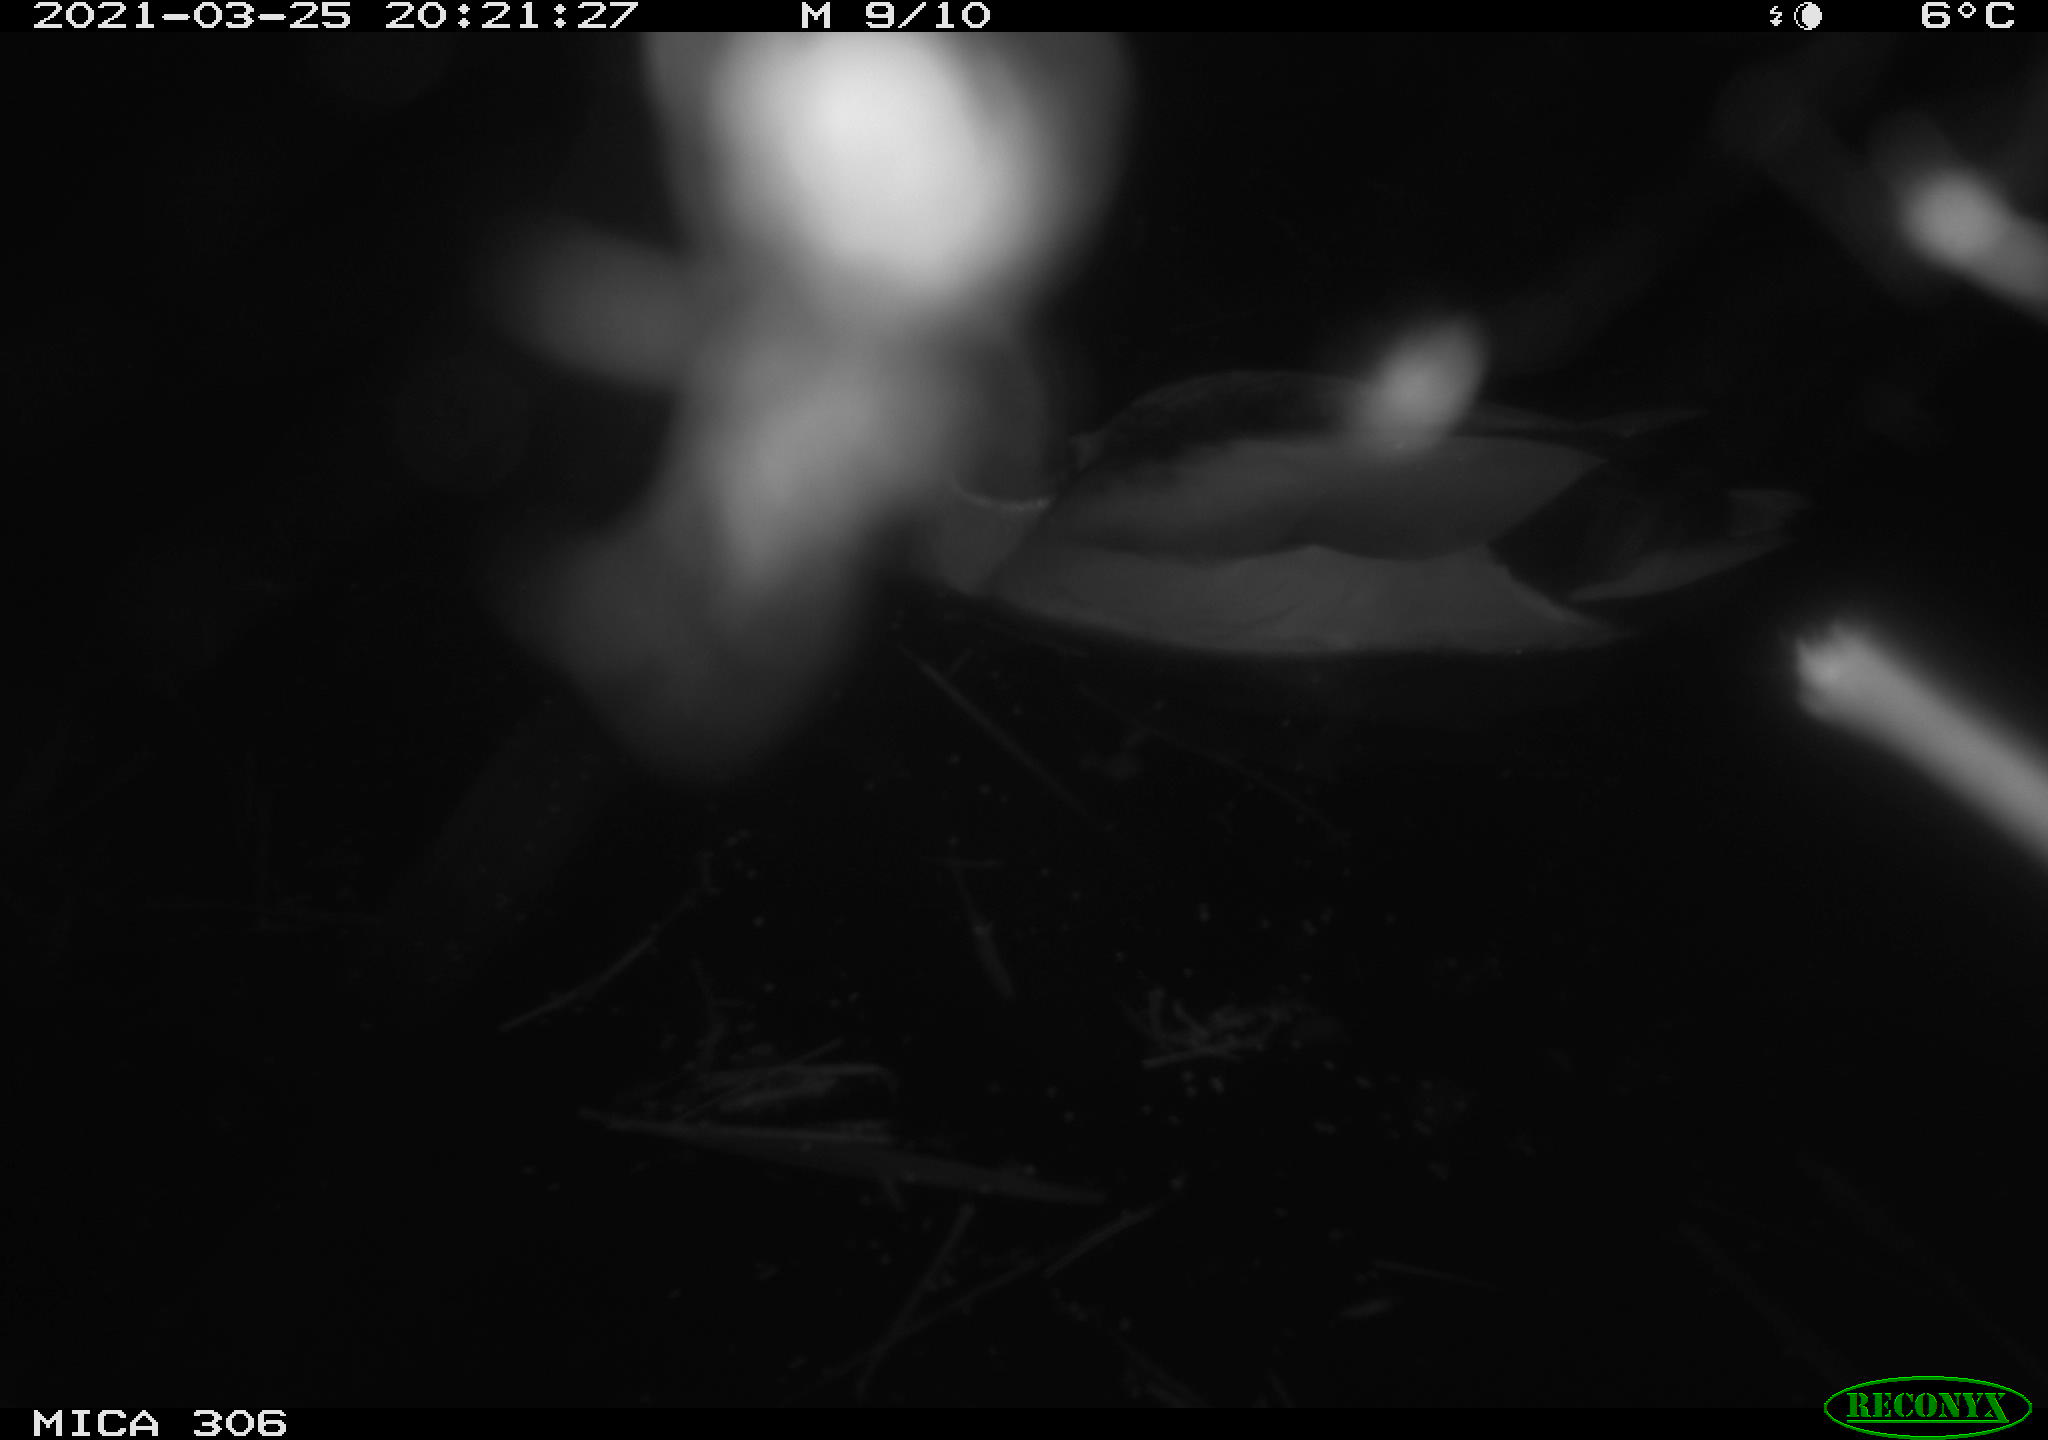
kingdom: Animalia
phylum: Chordata
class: Aves
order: Anseriformes
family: Anatidae
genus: Anas
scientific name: Anas platyrhynchos
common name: Mallard
